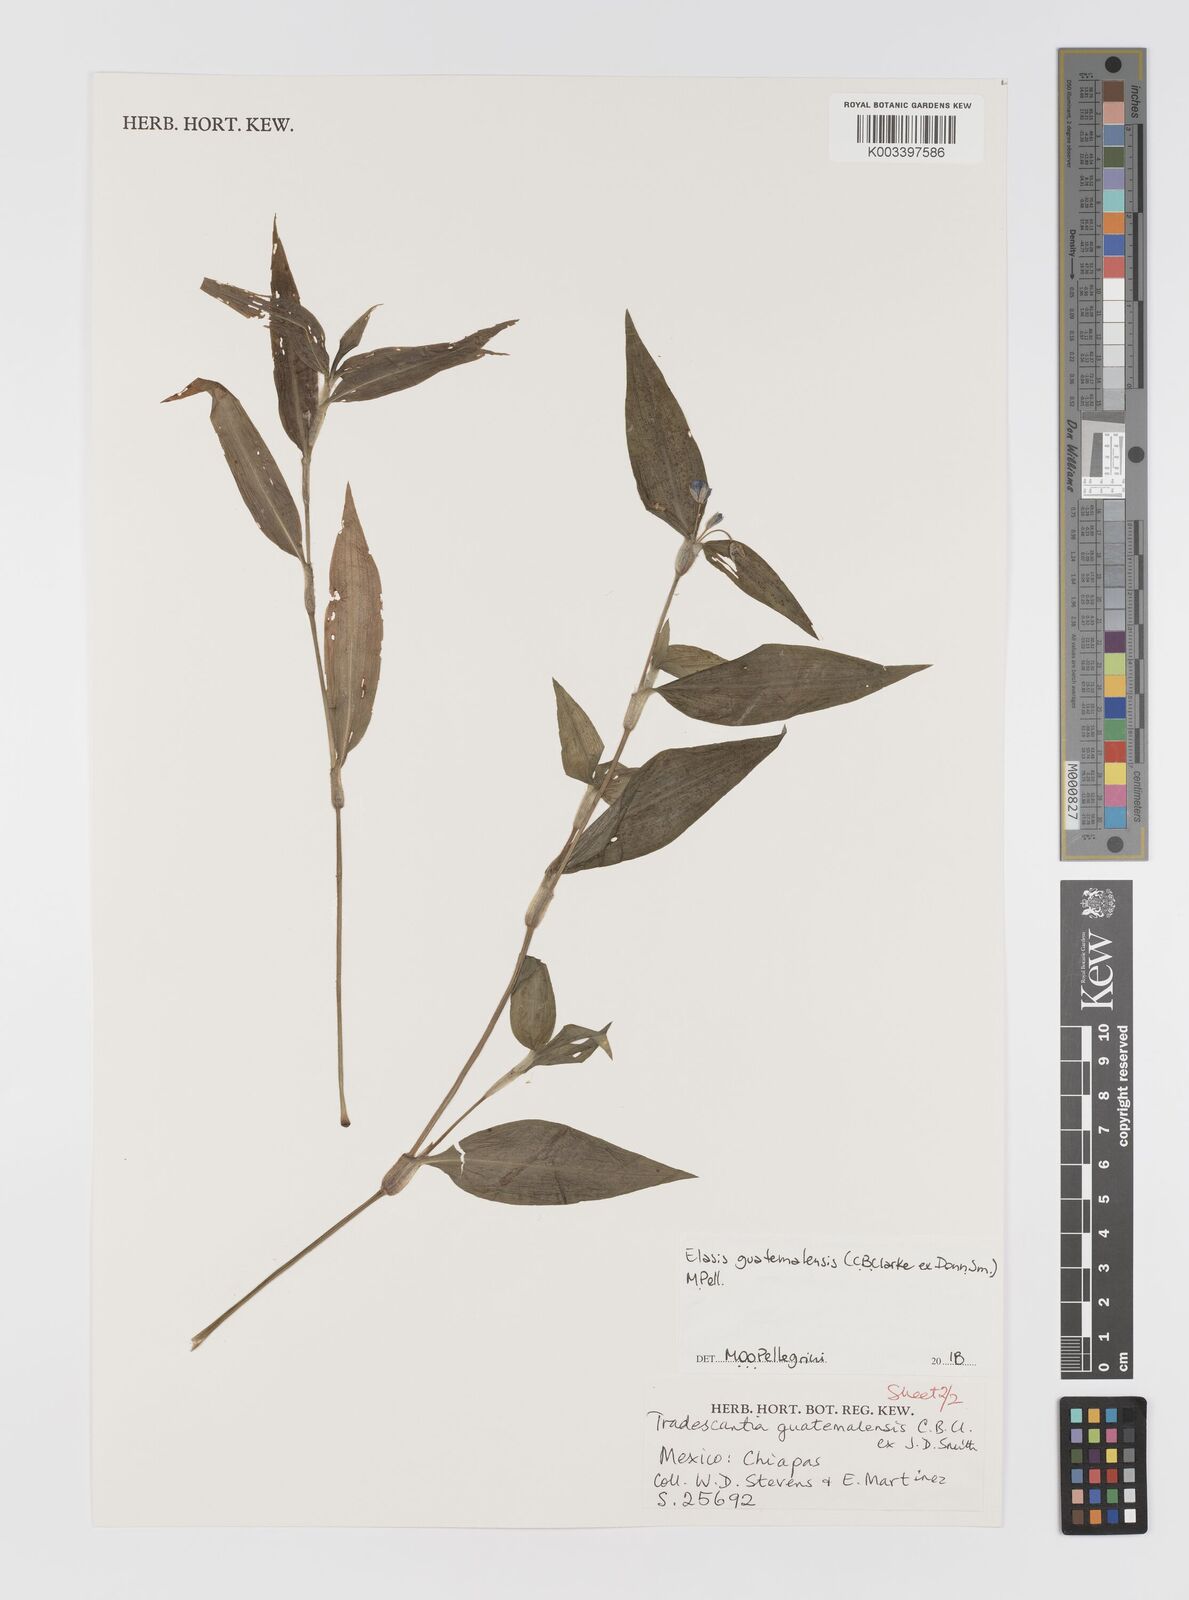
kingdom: Plantae
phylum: Tracheophyta
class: Liliopsida
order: Commelinales
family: Commelinaceae
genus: Elasis
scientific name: Elasis guatemalensis
